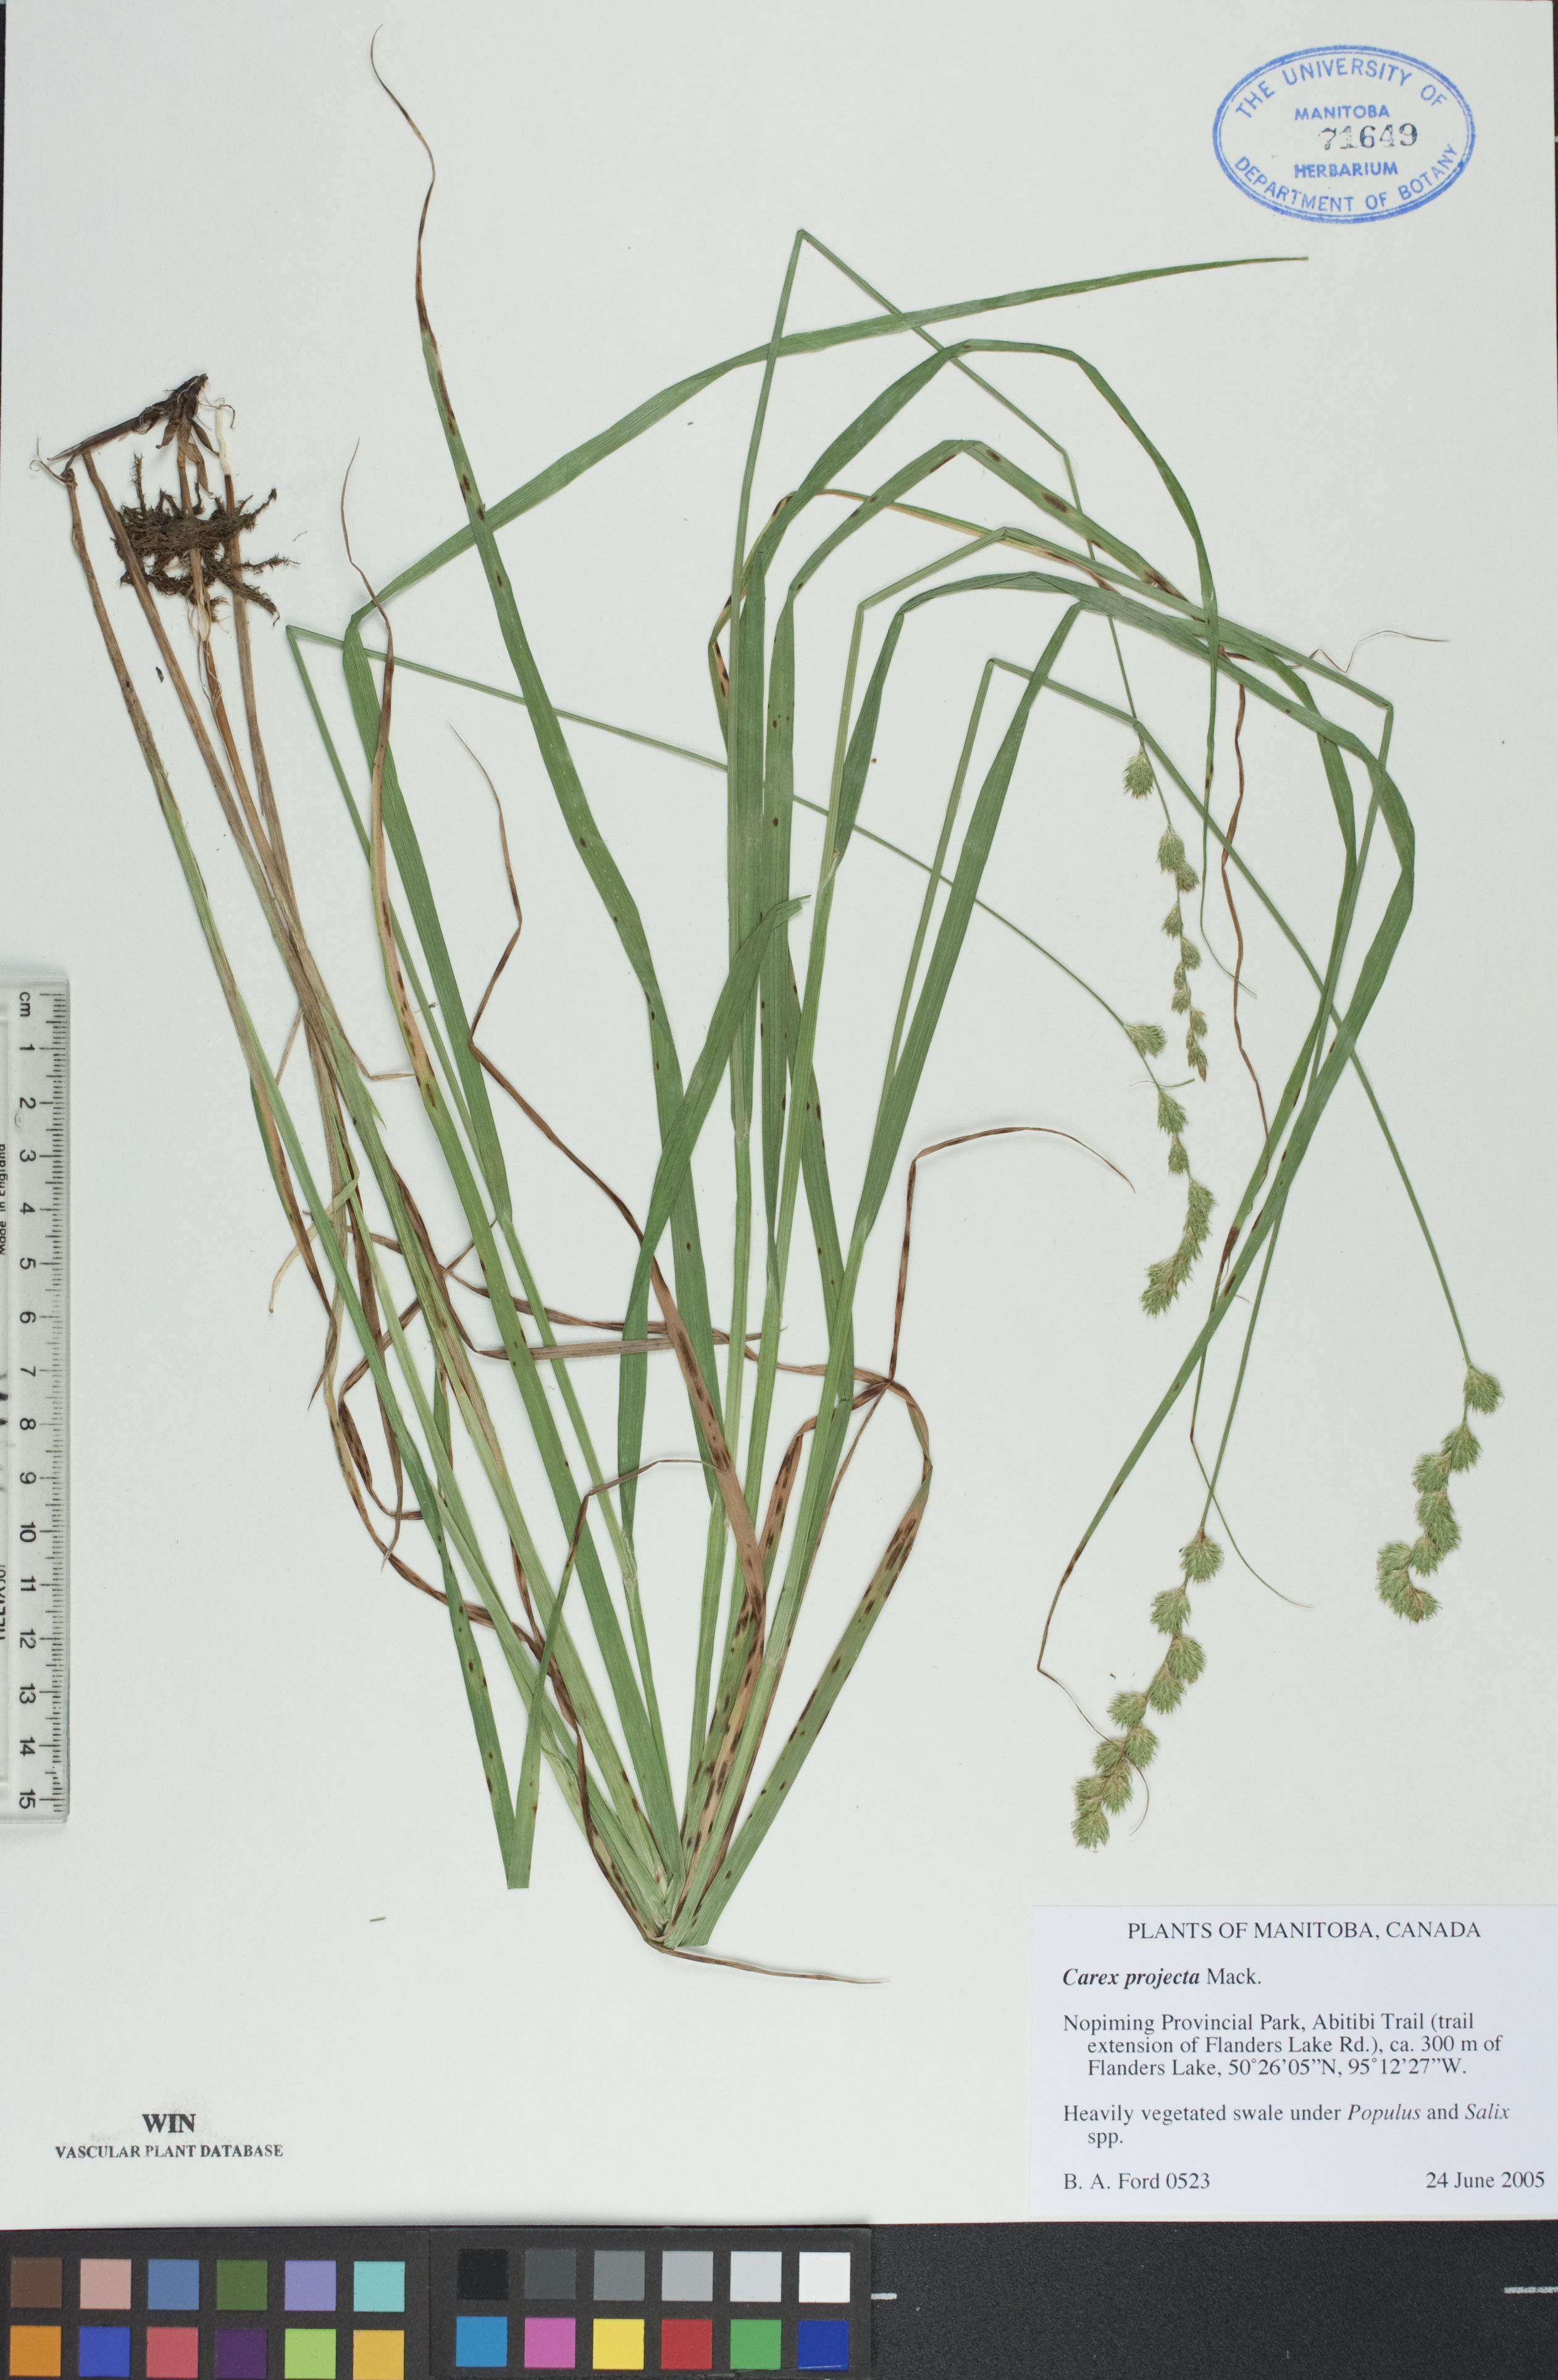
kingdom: Plantae
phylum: Tracheophyta
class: Liliopsida
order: Poales
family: Cyperaceae
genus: Carex
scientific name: Carex projecta
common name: Loose-headed oval sedge
